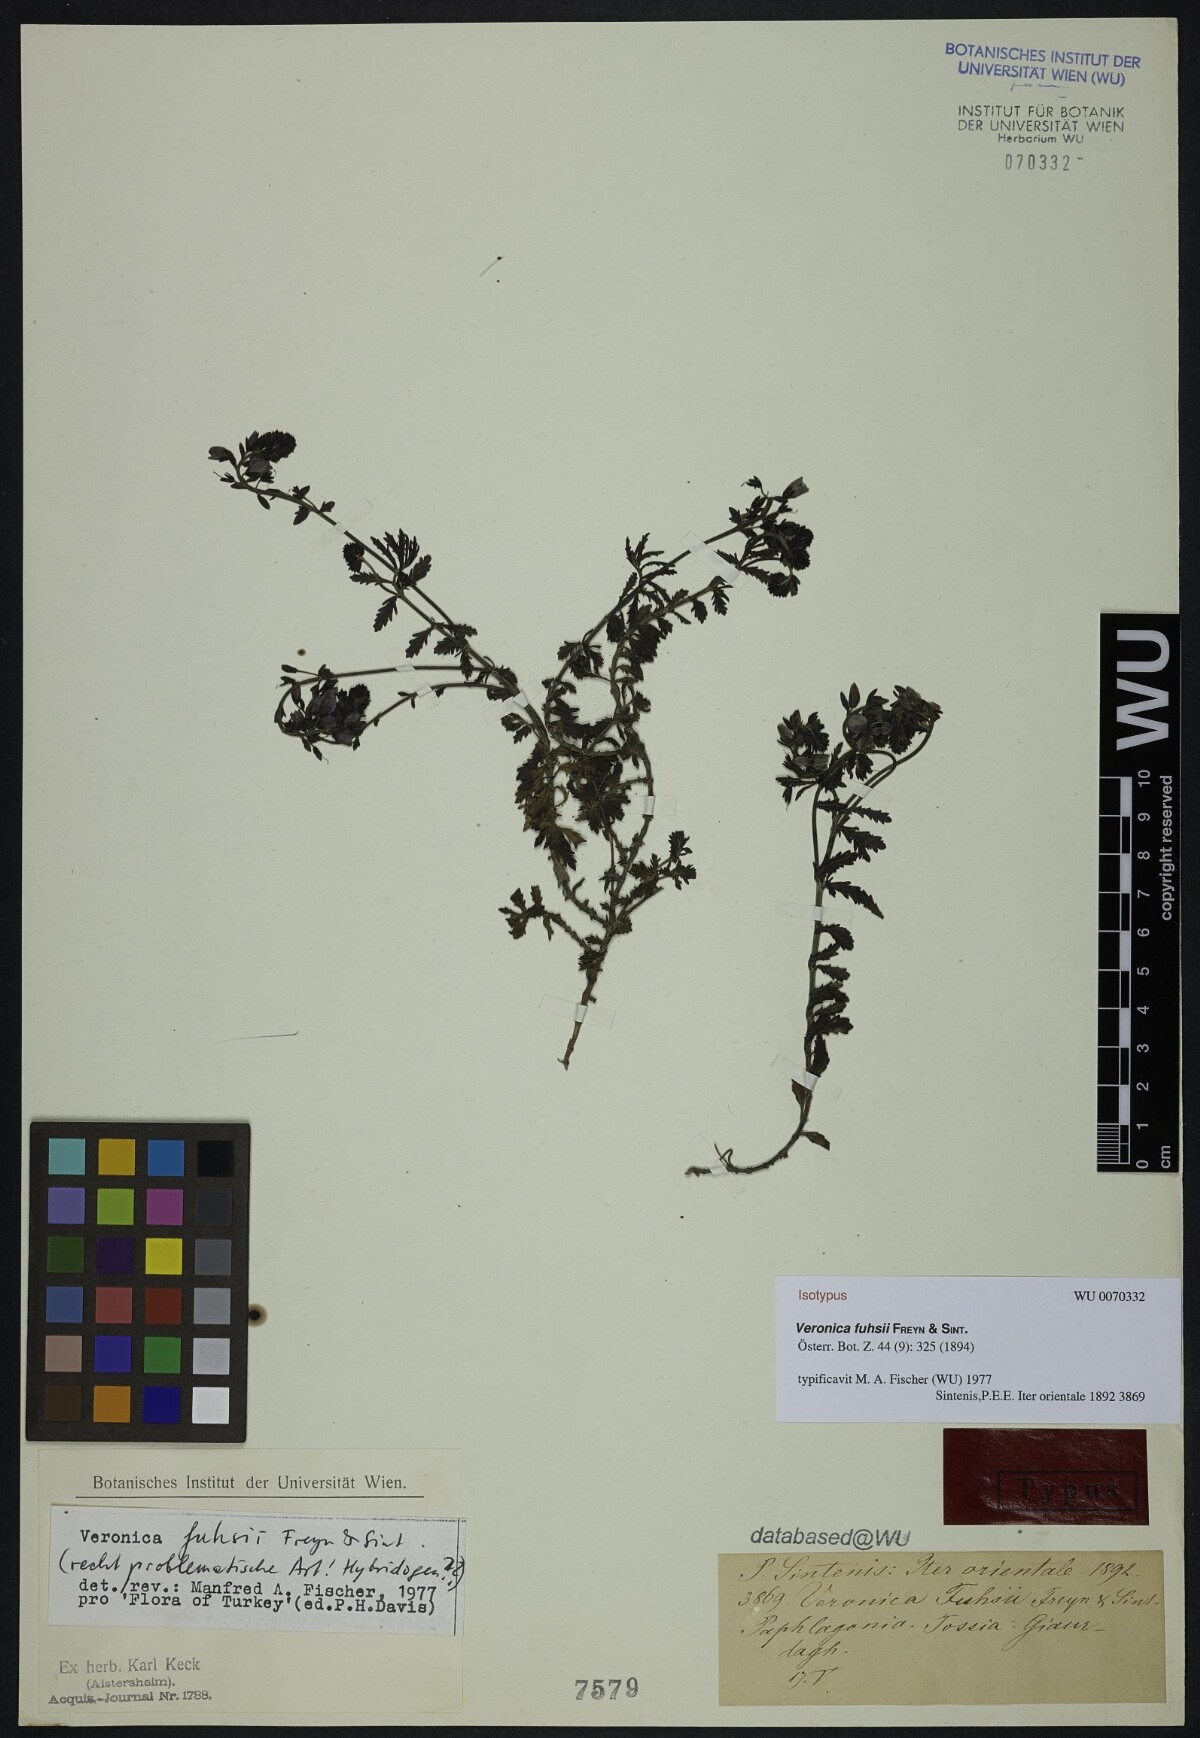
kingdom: Plantae
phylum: Tracheophyta
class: Magnoliopsida
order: Lamiales
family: Plantaginaceae
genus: Veronica
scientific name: Veronica fuhsii
